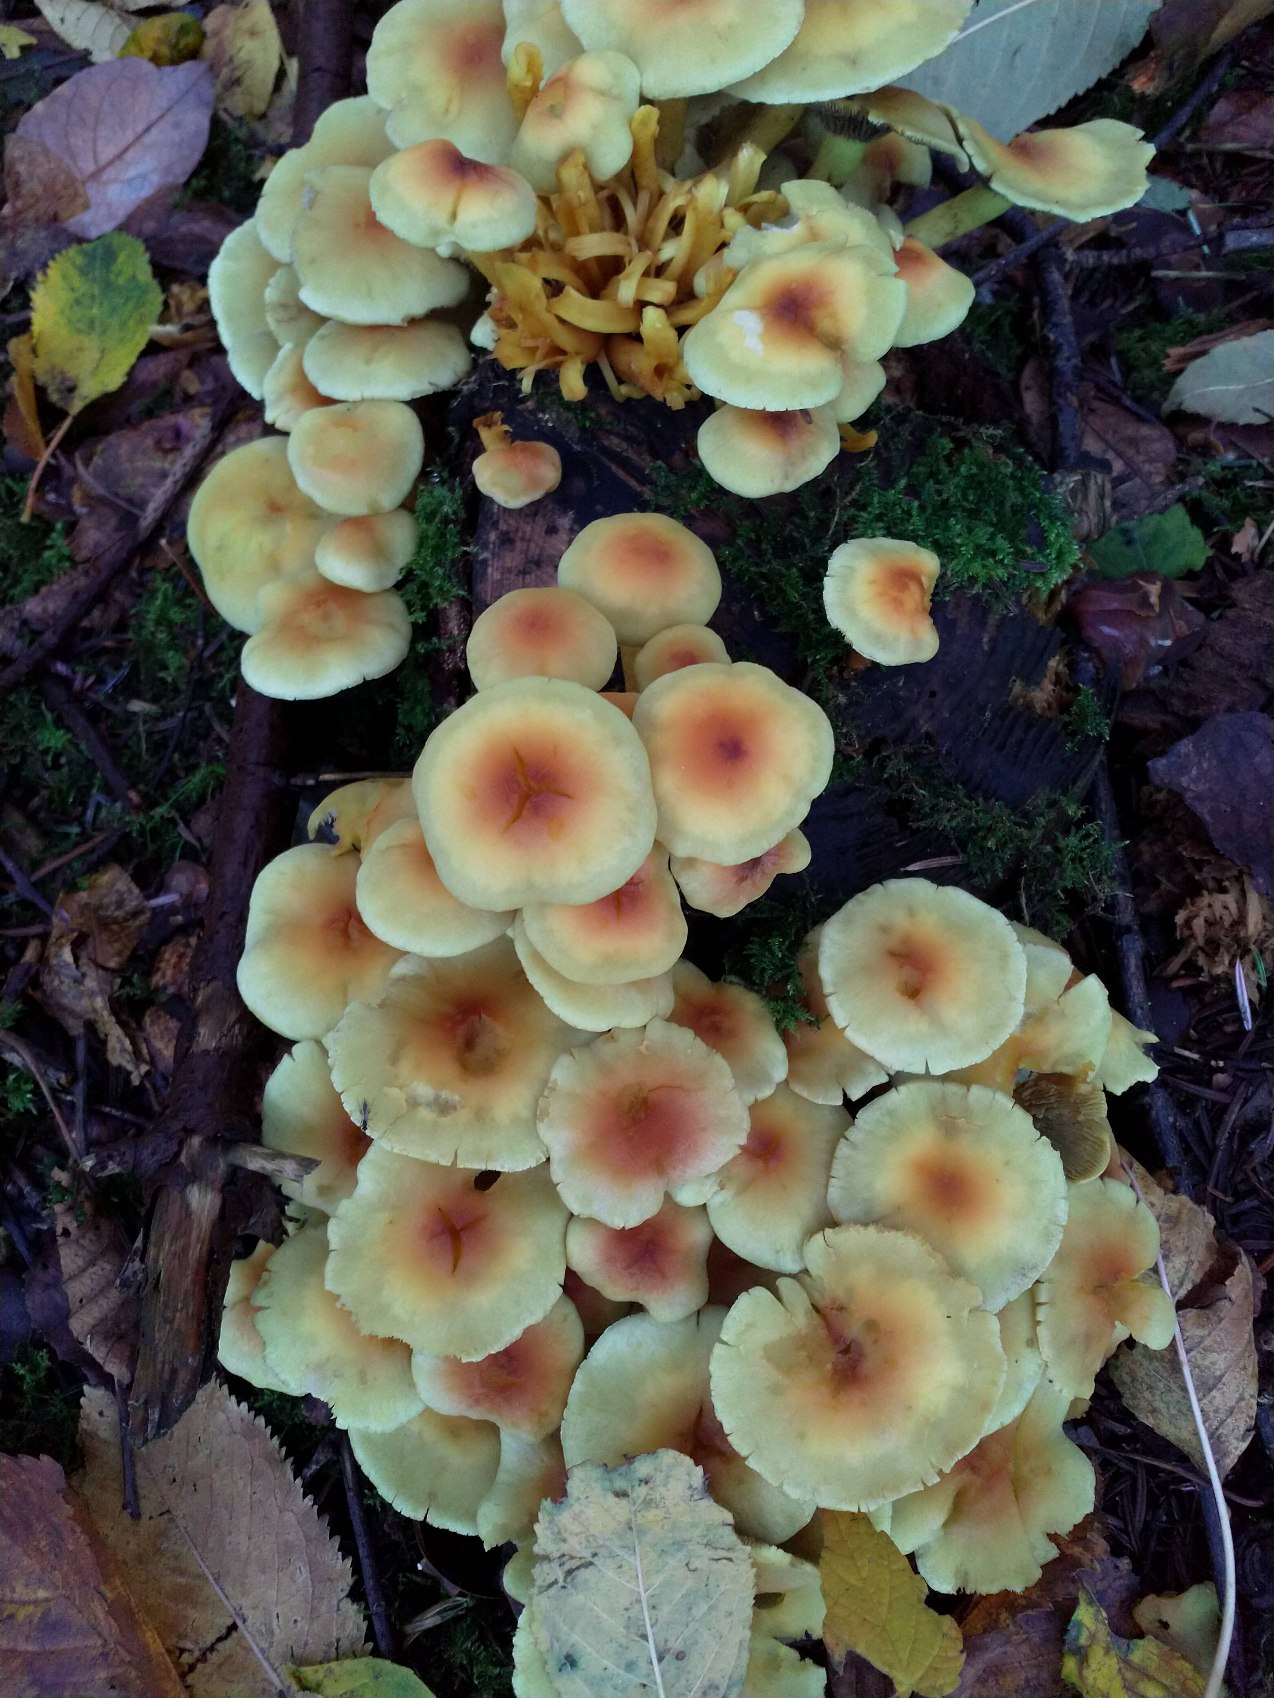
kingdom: Fungi
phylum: Basidiomycota
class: Agaricomycetes
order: Agaricales
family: Strophariaceae
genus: Hypholoma
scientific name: Hypholoma fasciculare
